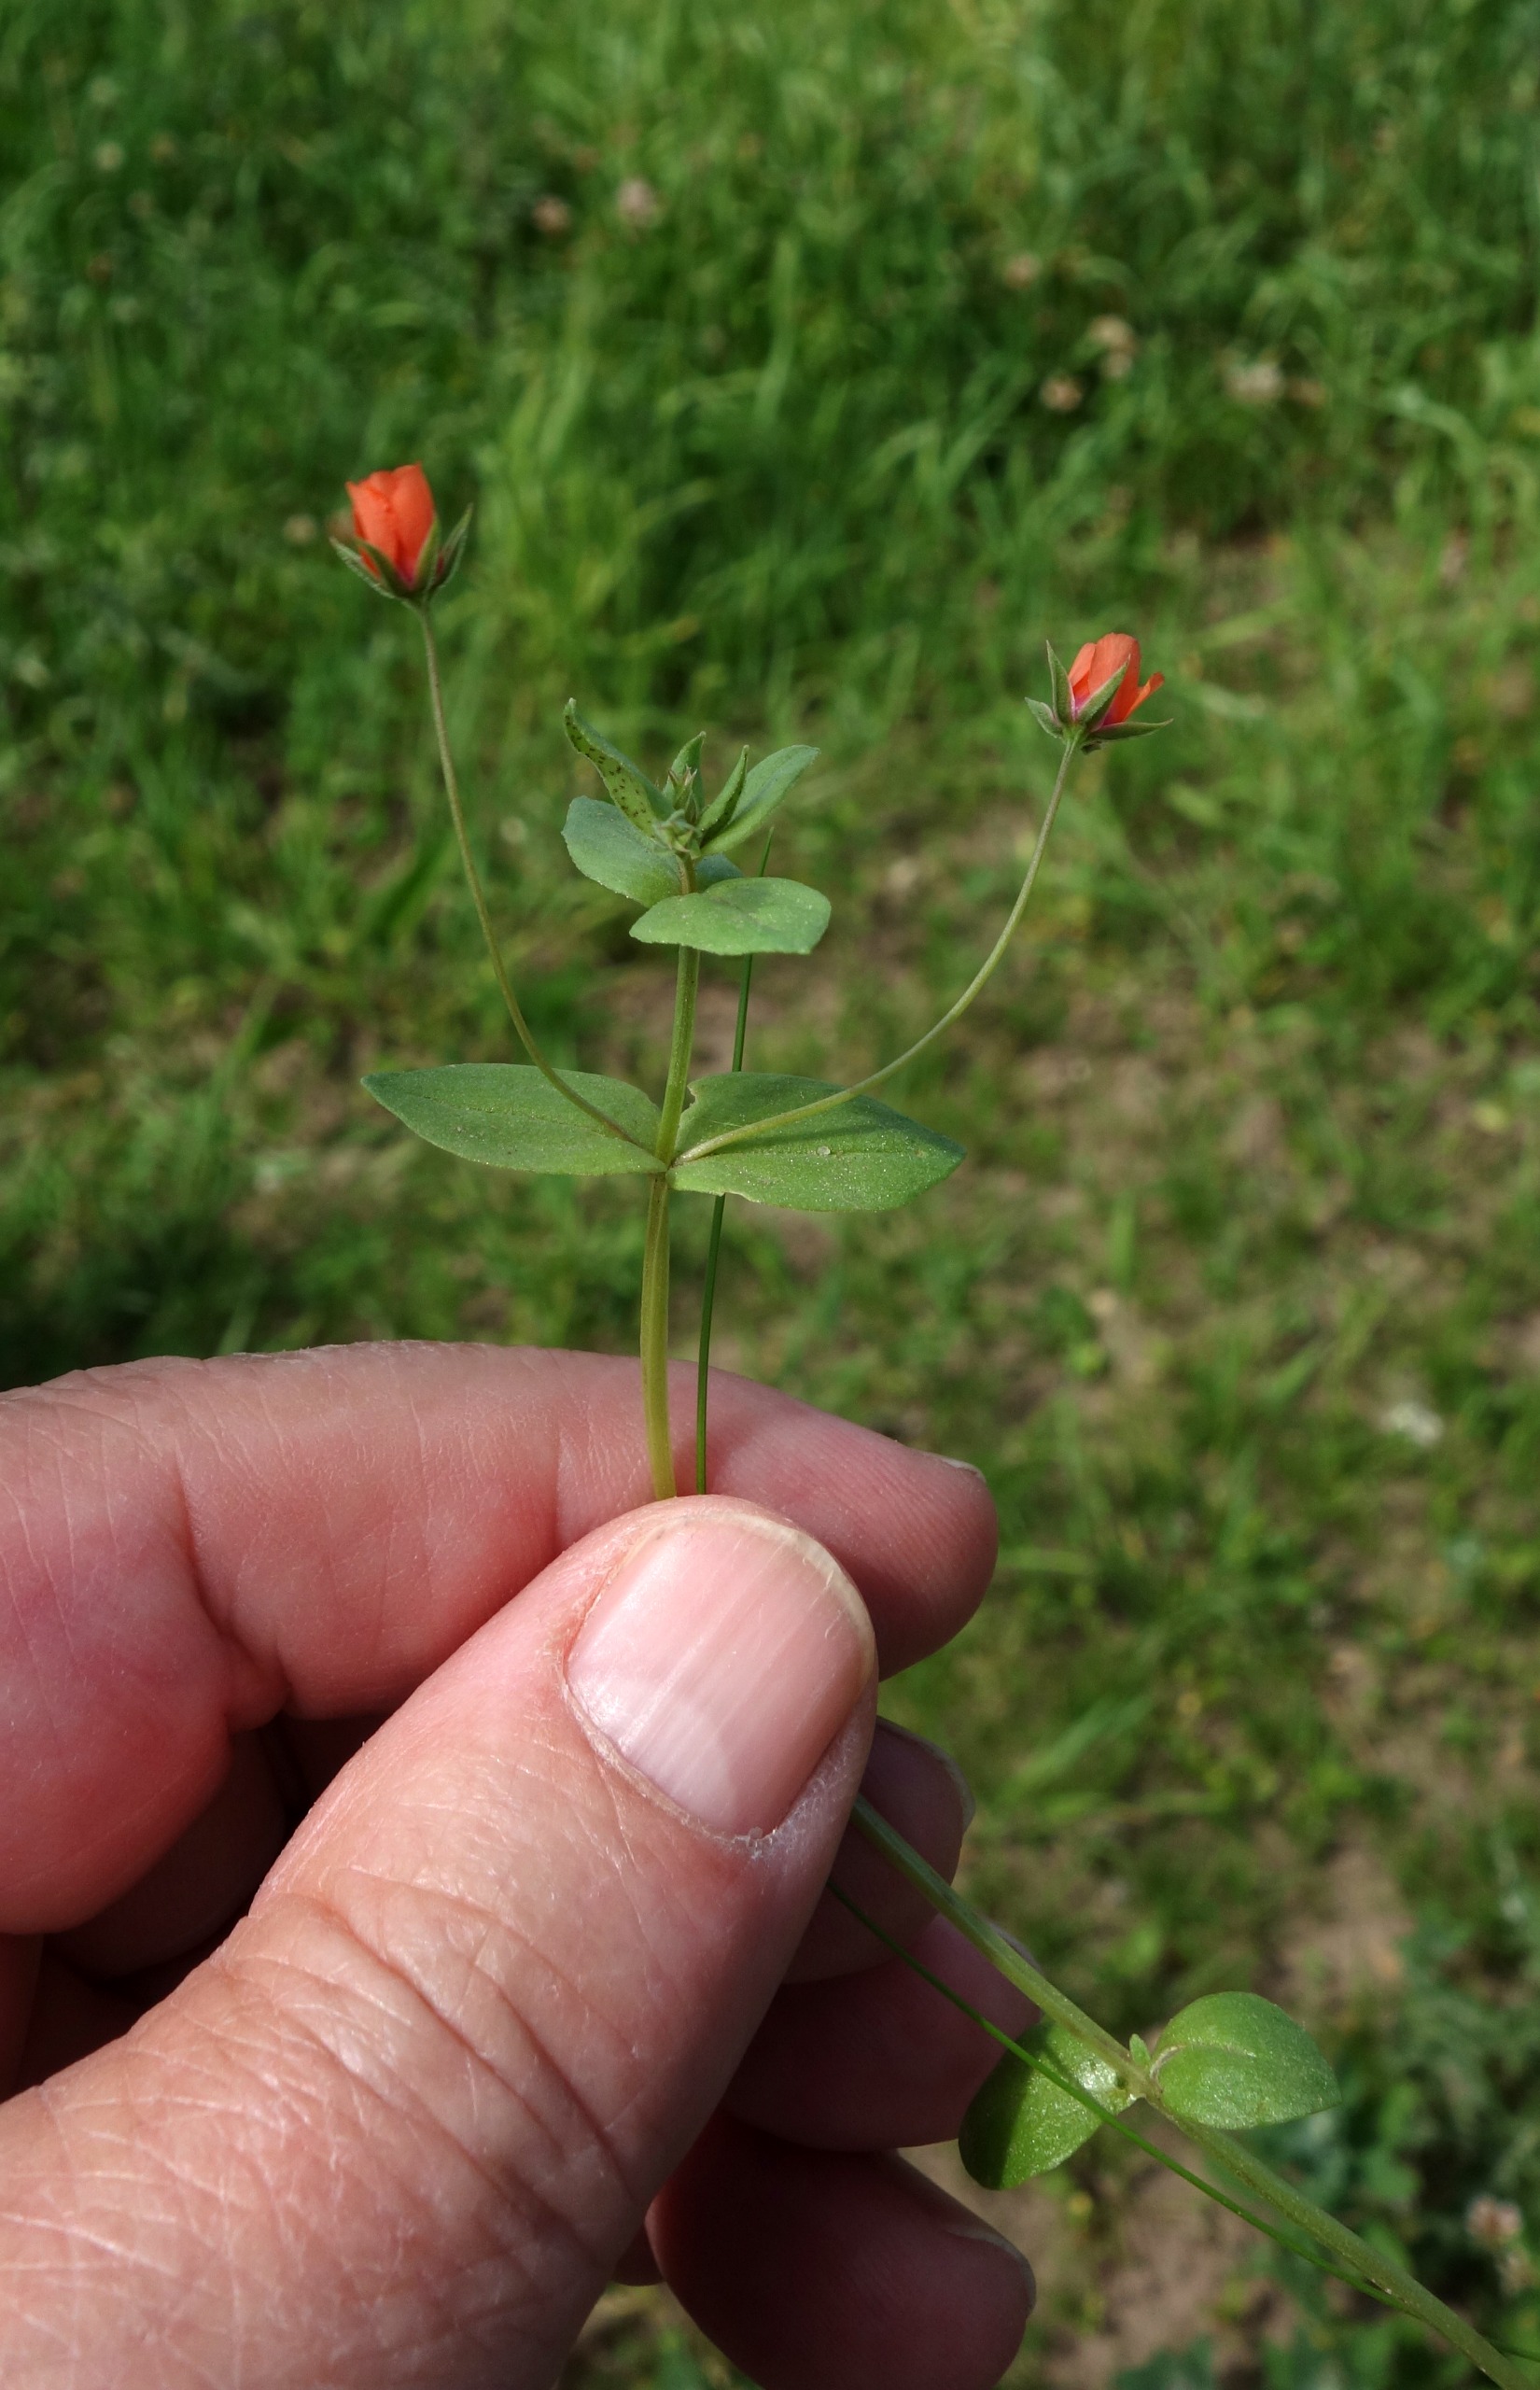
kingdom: Plantae
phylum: Tracheophyta
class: Magnoliopsida
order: Ericales
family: Primulaceae
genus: Lysimachia
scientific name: Lysimachia arvensis
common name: Rød arve
